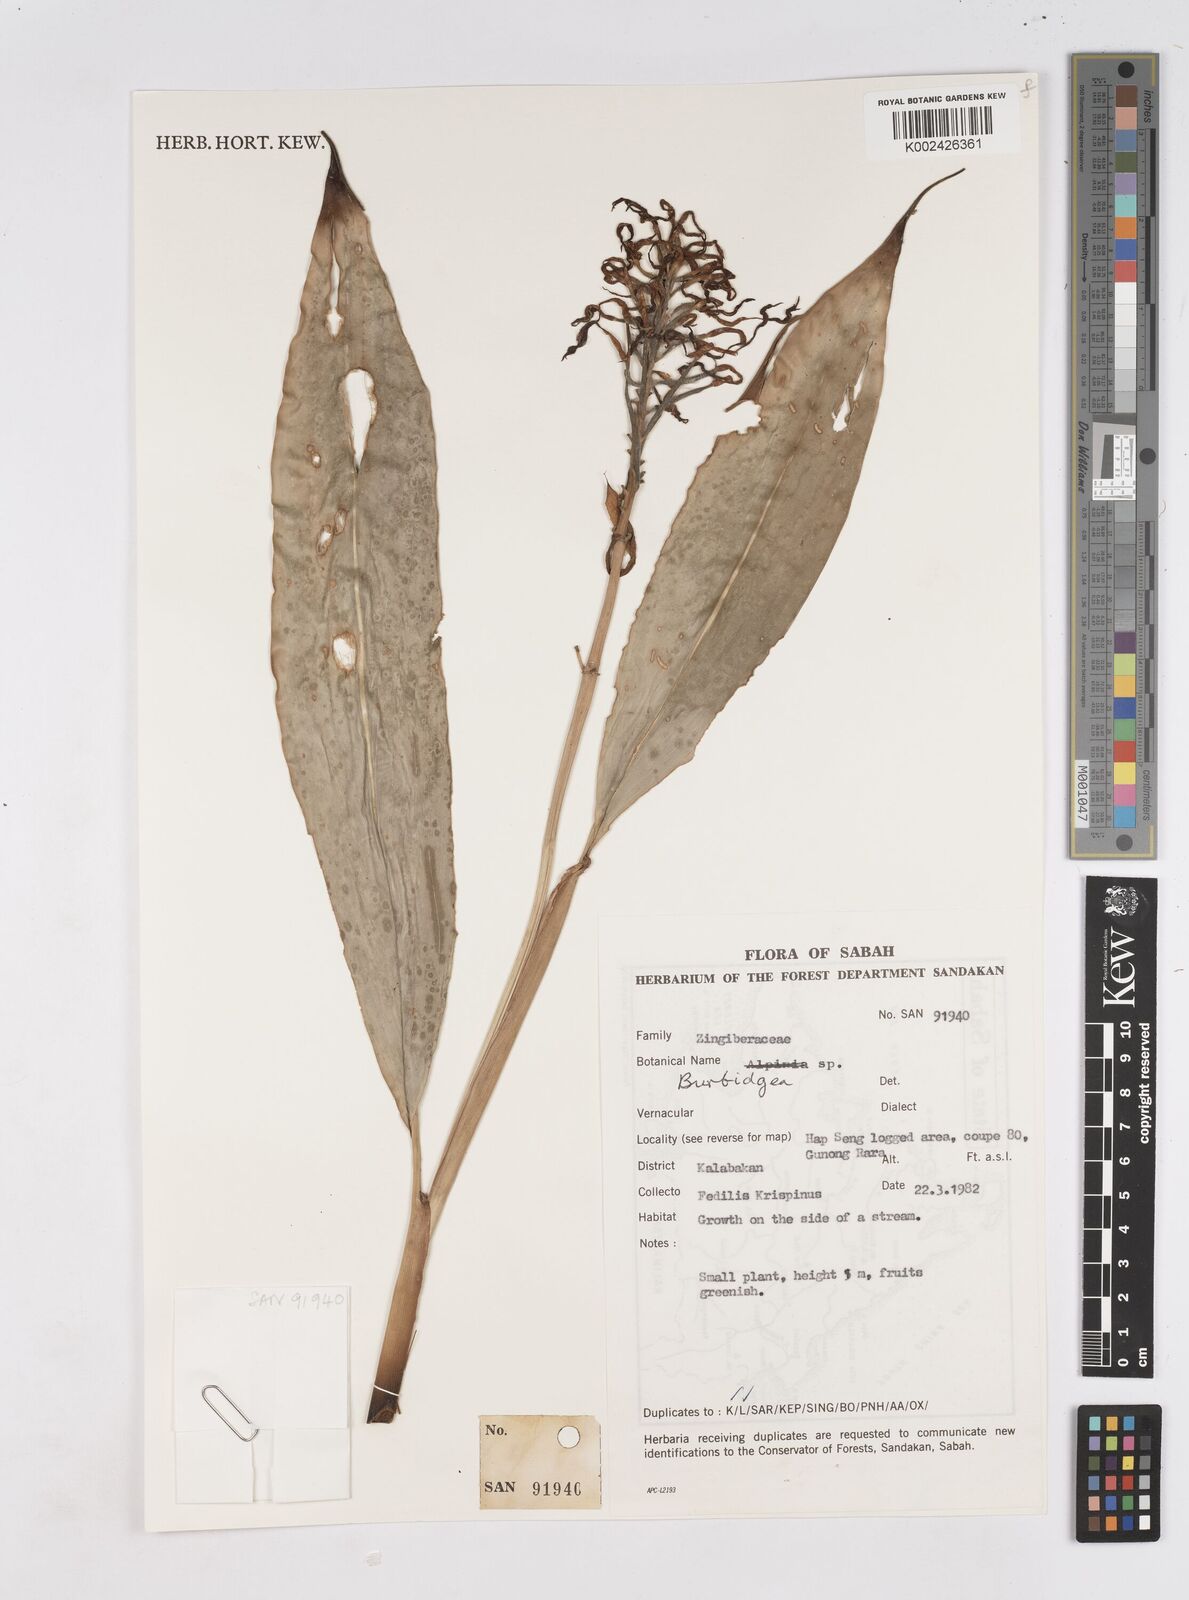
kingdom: Plantae
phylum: Tracheophyta
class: Liliopsida
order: Zingiberales
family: Zingiberaceae
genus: Burbidgea
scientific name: Burbidgea
